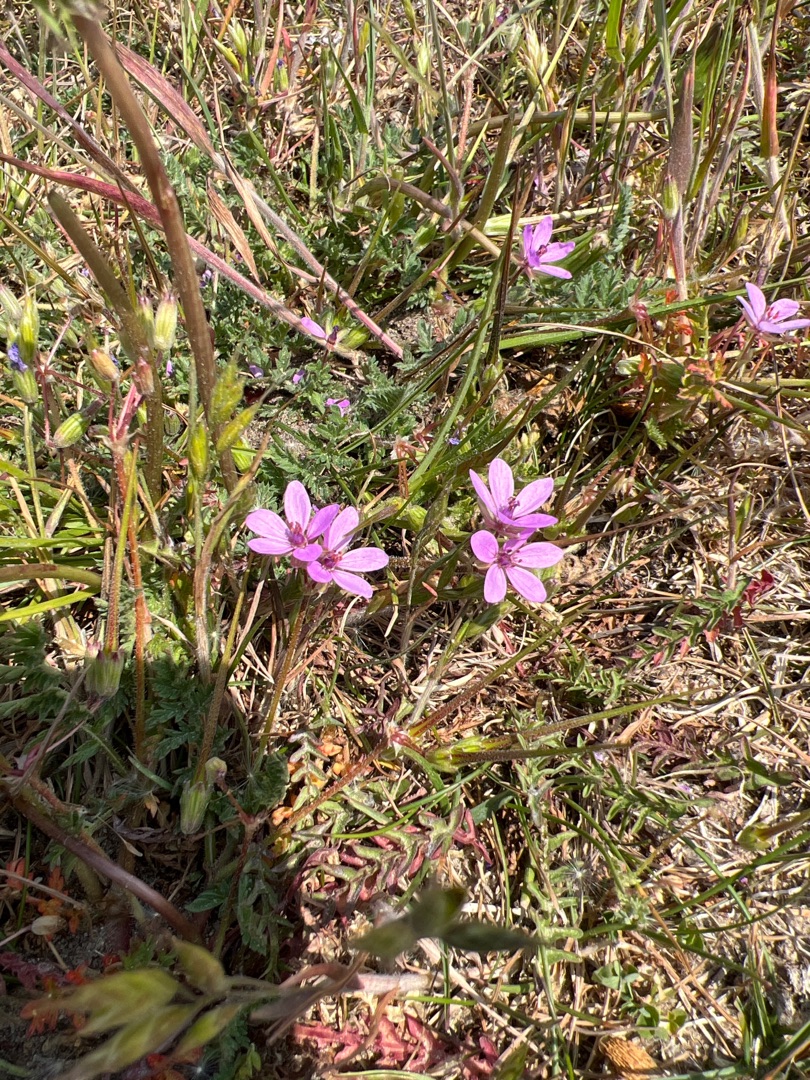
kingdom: Plantae
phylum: Tracheophyta
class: Magnoliopsida
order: Geraniales
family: Geraniaceae
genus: Erodium
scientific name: Erodium cicutarium
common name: Hejrenæb
